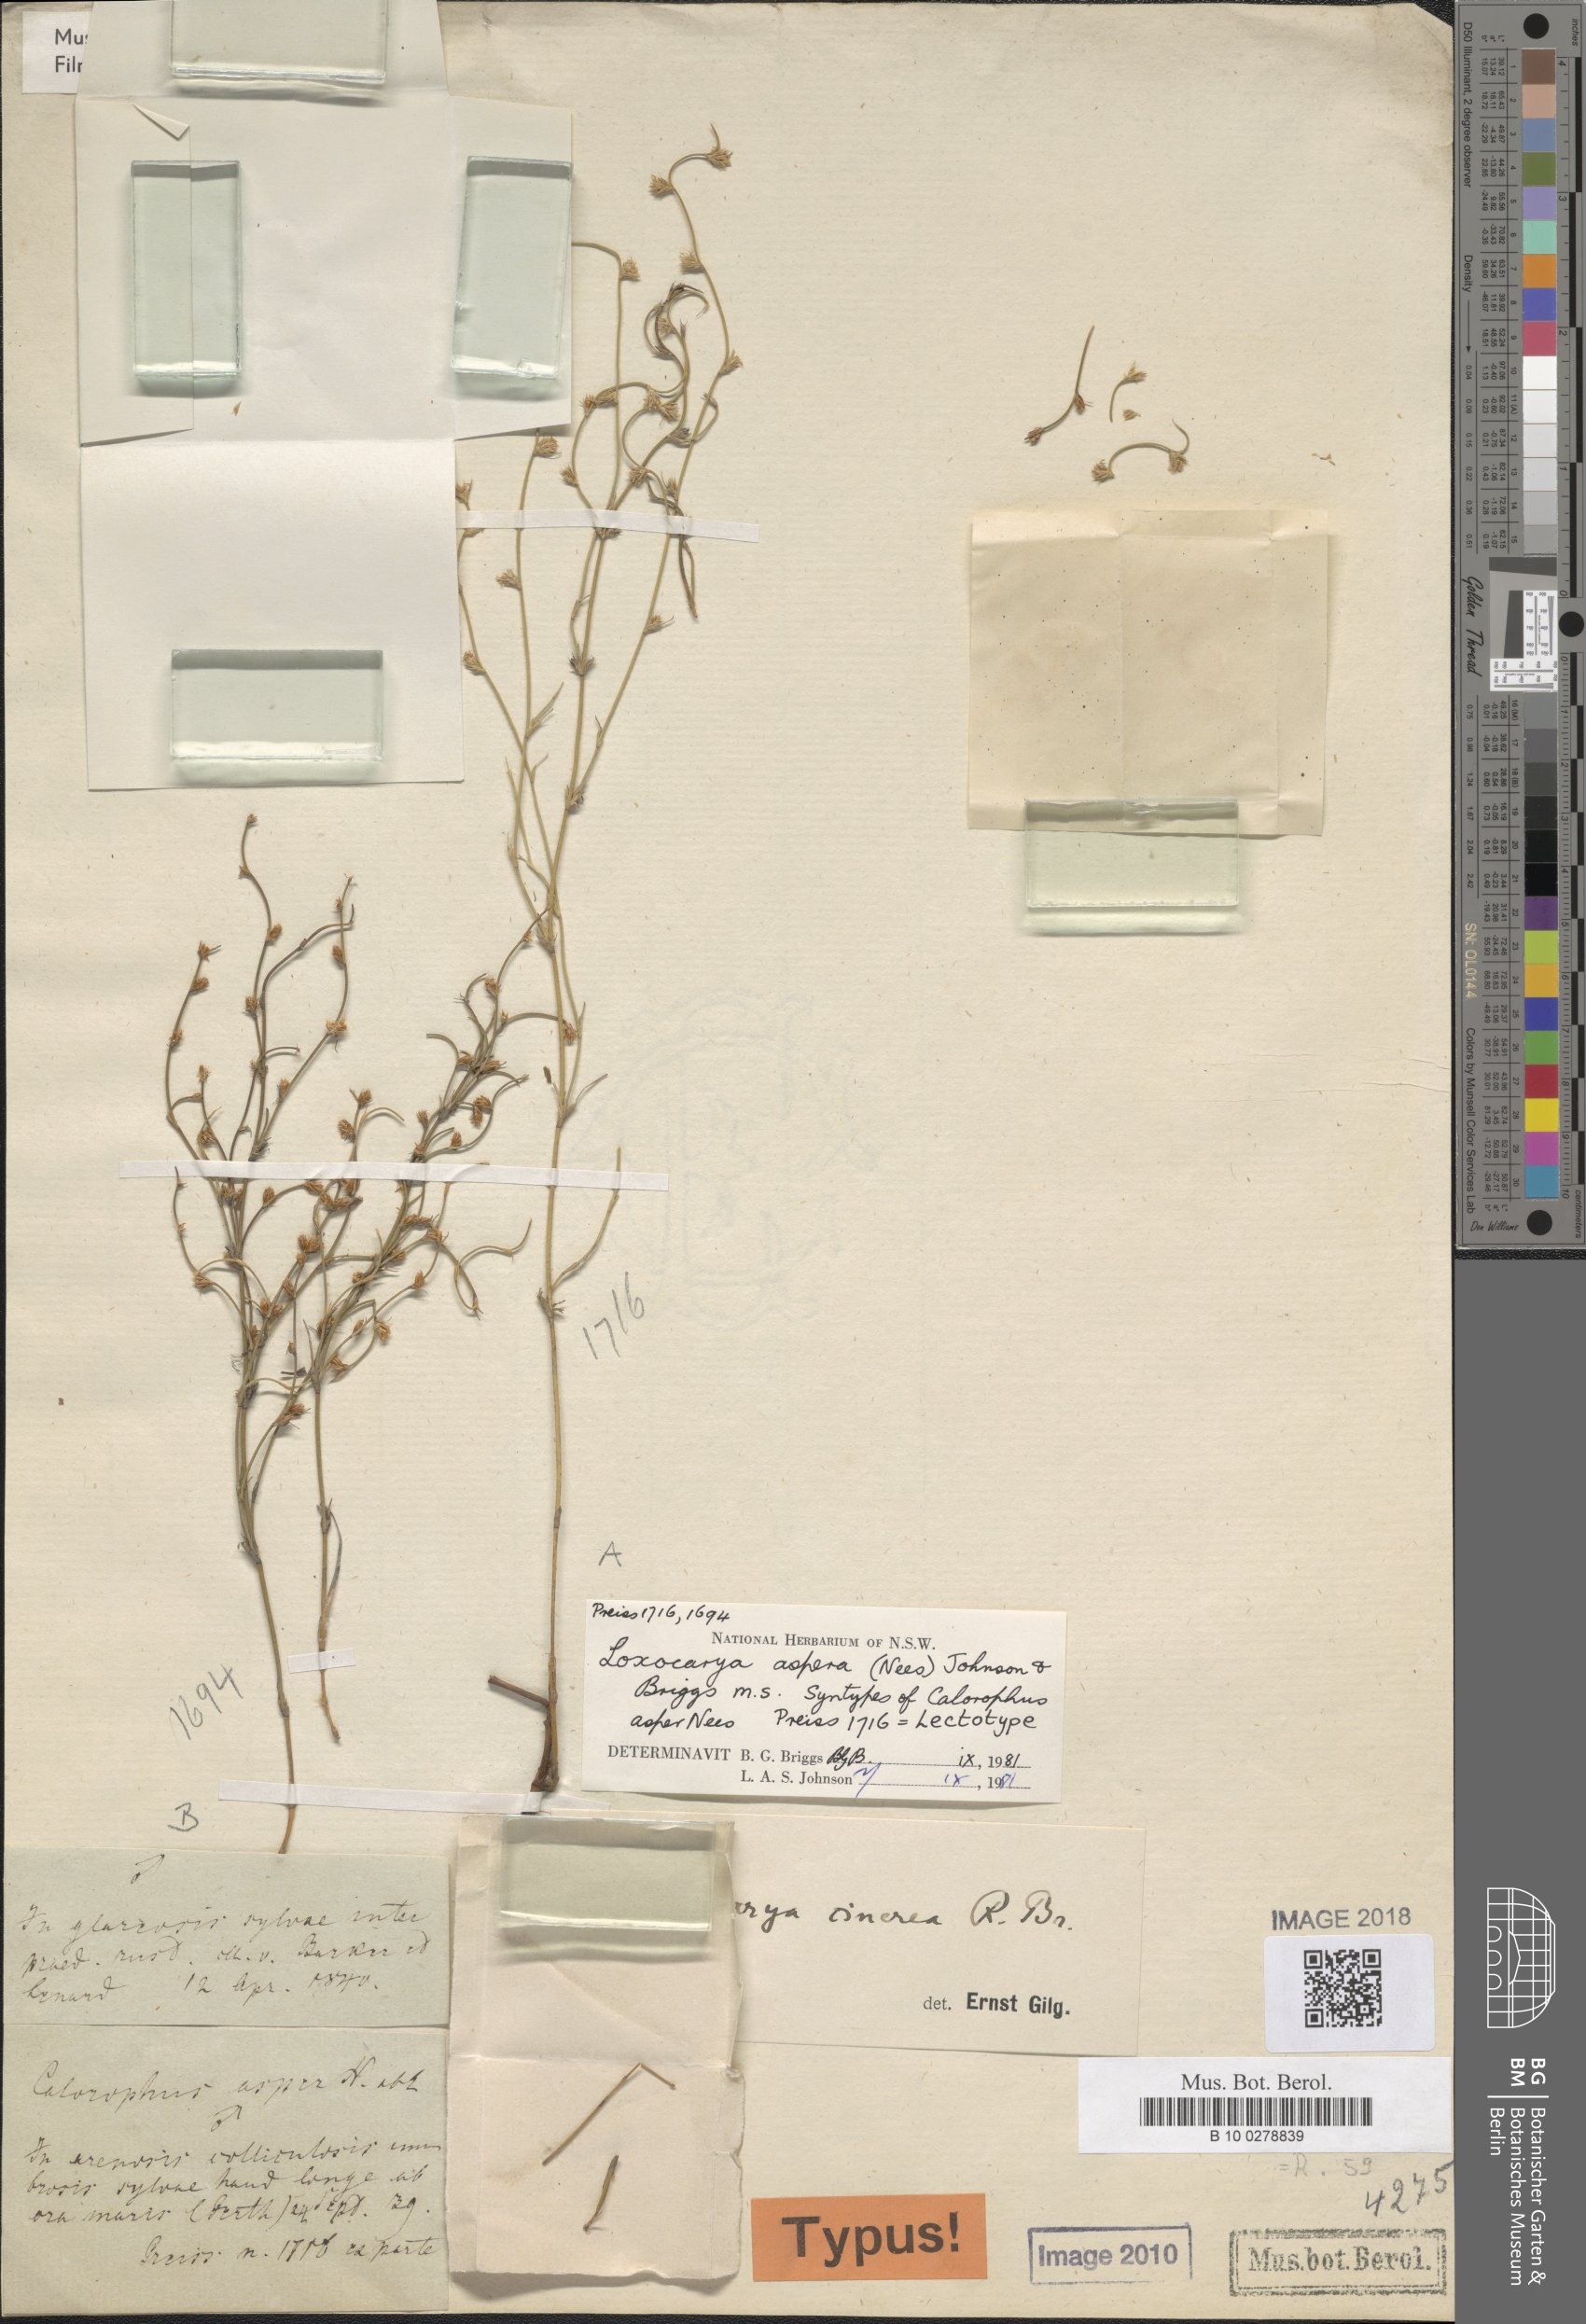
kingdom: Plantae
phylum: Tracheophyta
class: Liliopsida
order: Poales
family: Restionaceae
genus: Loxocarya
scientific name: Loxocarya
